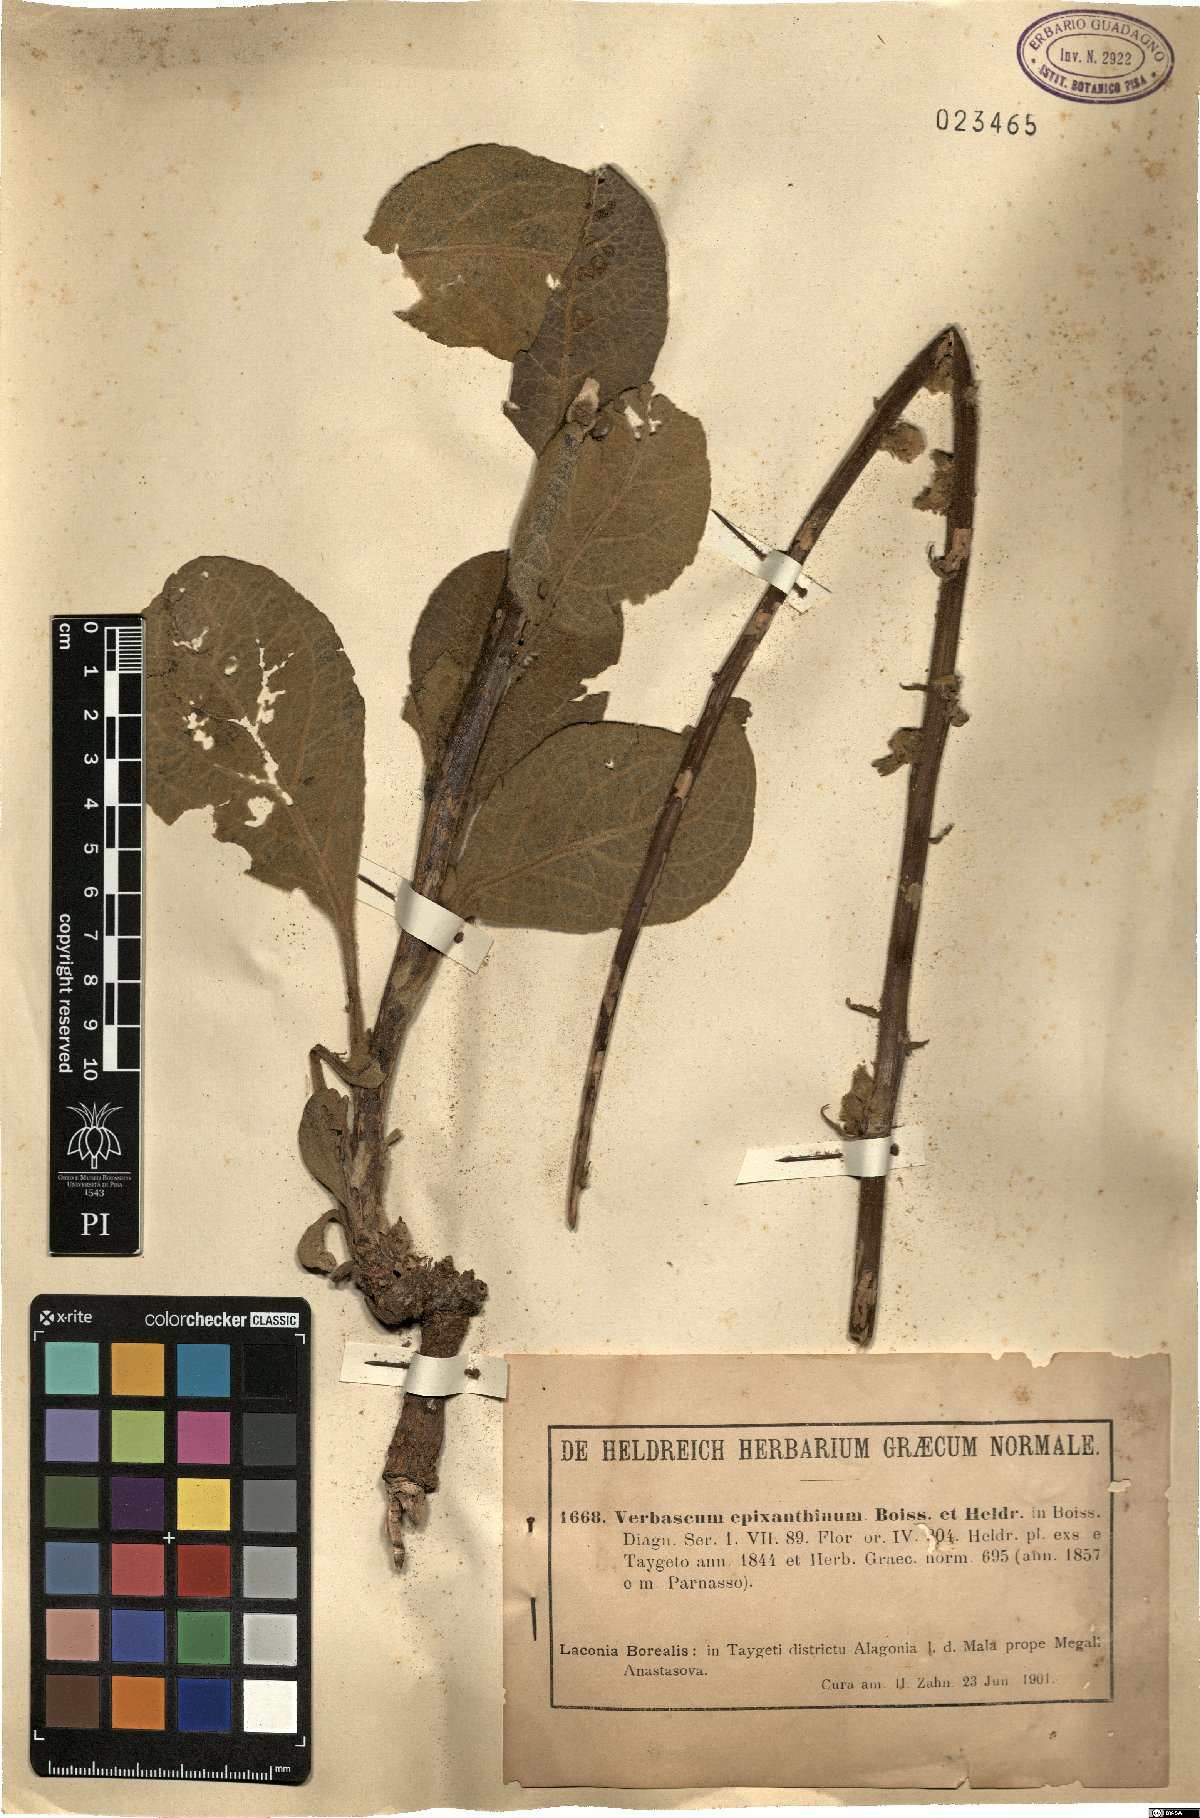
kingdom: Plantae
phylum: Tracheophyta
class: Magnoliopsida
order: Lamiales
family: Scrophulariaceae
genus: Verbascum
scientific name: Verbascum epixanthinum
